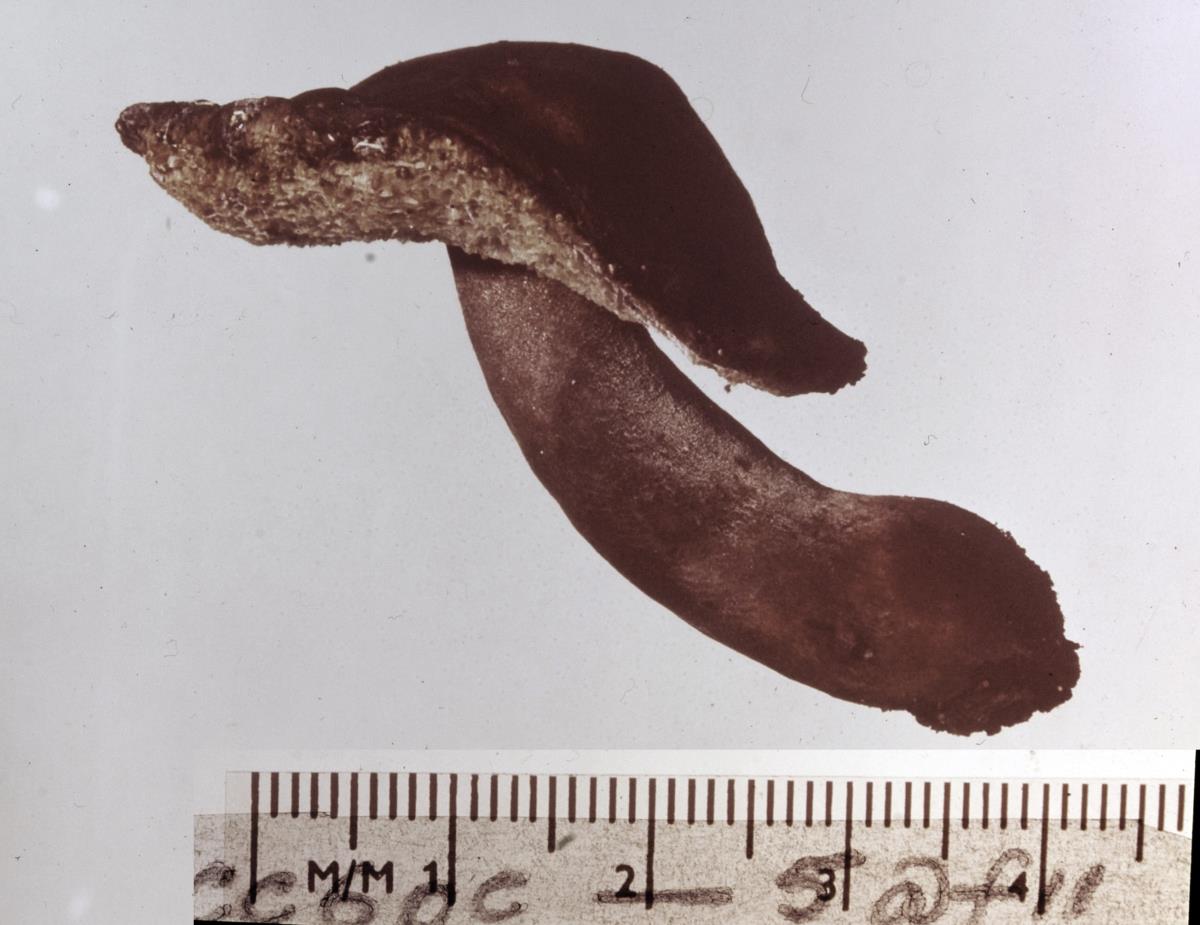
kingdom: Fungi
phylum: Basidiomycota
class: Agaricomycetes
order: Boletales
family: Gyroporaceae
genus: Gyroporus
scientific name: Gyroporus castaneus
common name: Chestnut bolete
